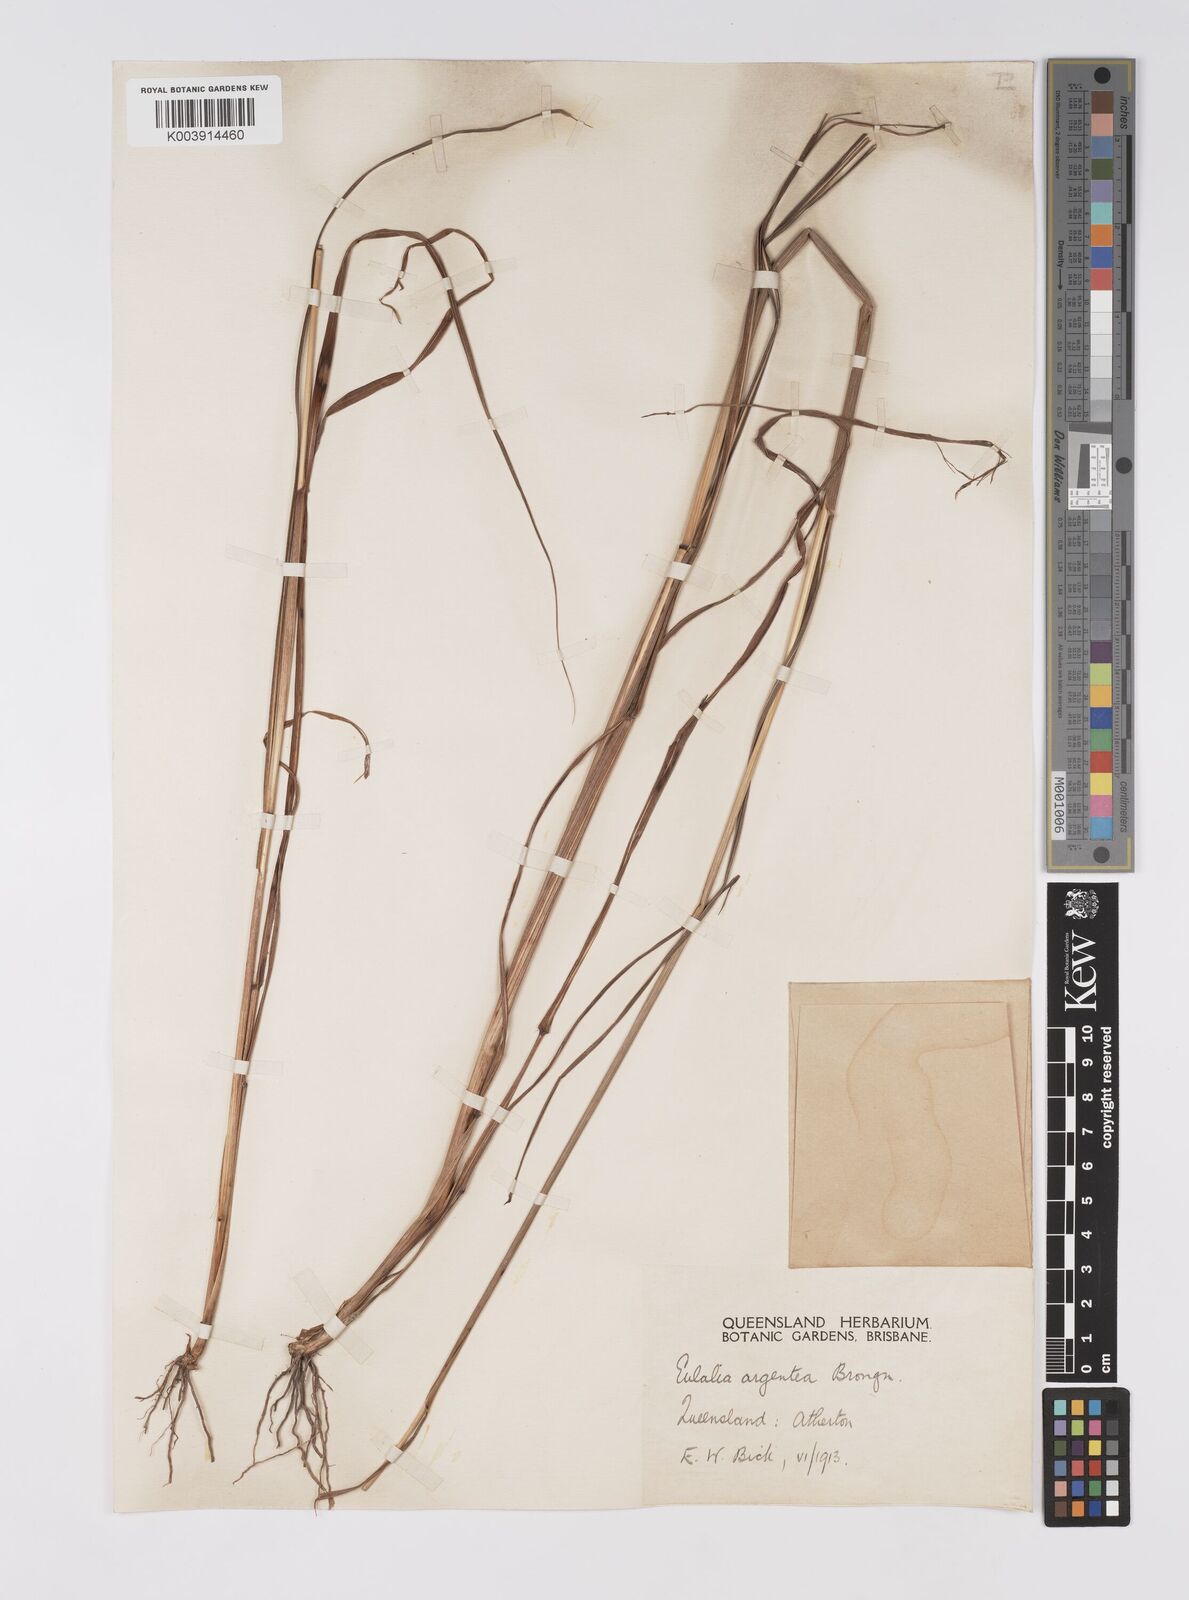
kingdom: Plantae
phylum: Tracheophyta
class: Liliopsida
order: Poales
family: Poaceae
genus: Pseudopogonatherum
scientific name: Pseudopogonatherum trispicatum
